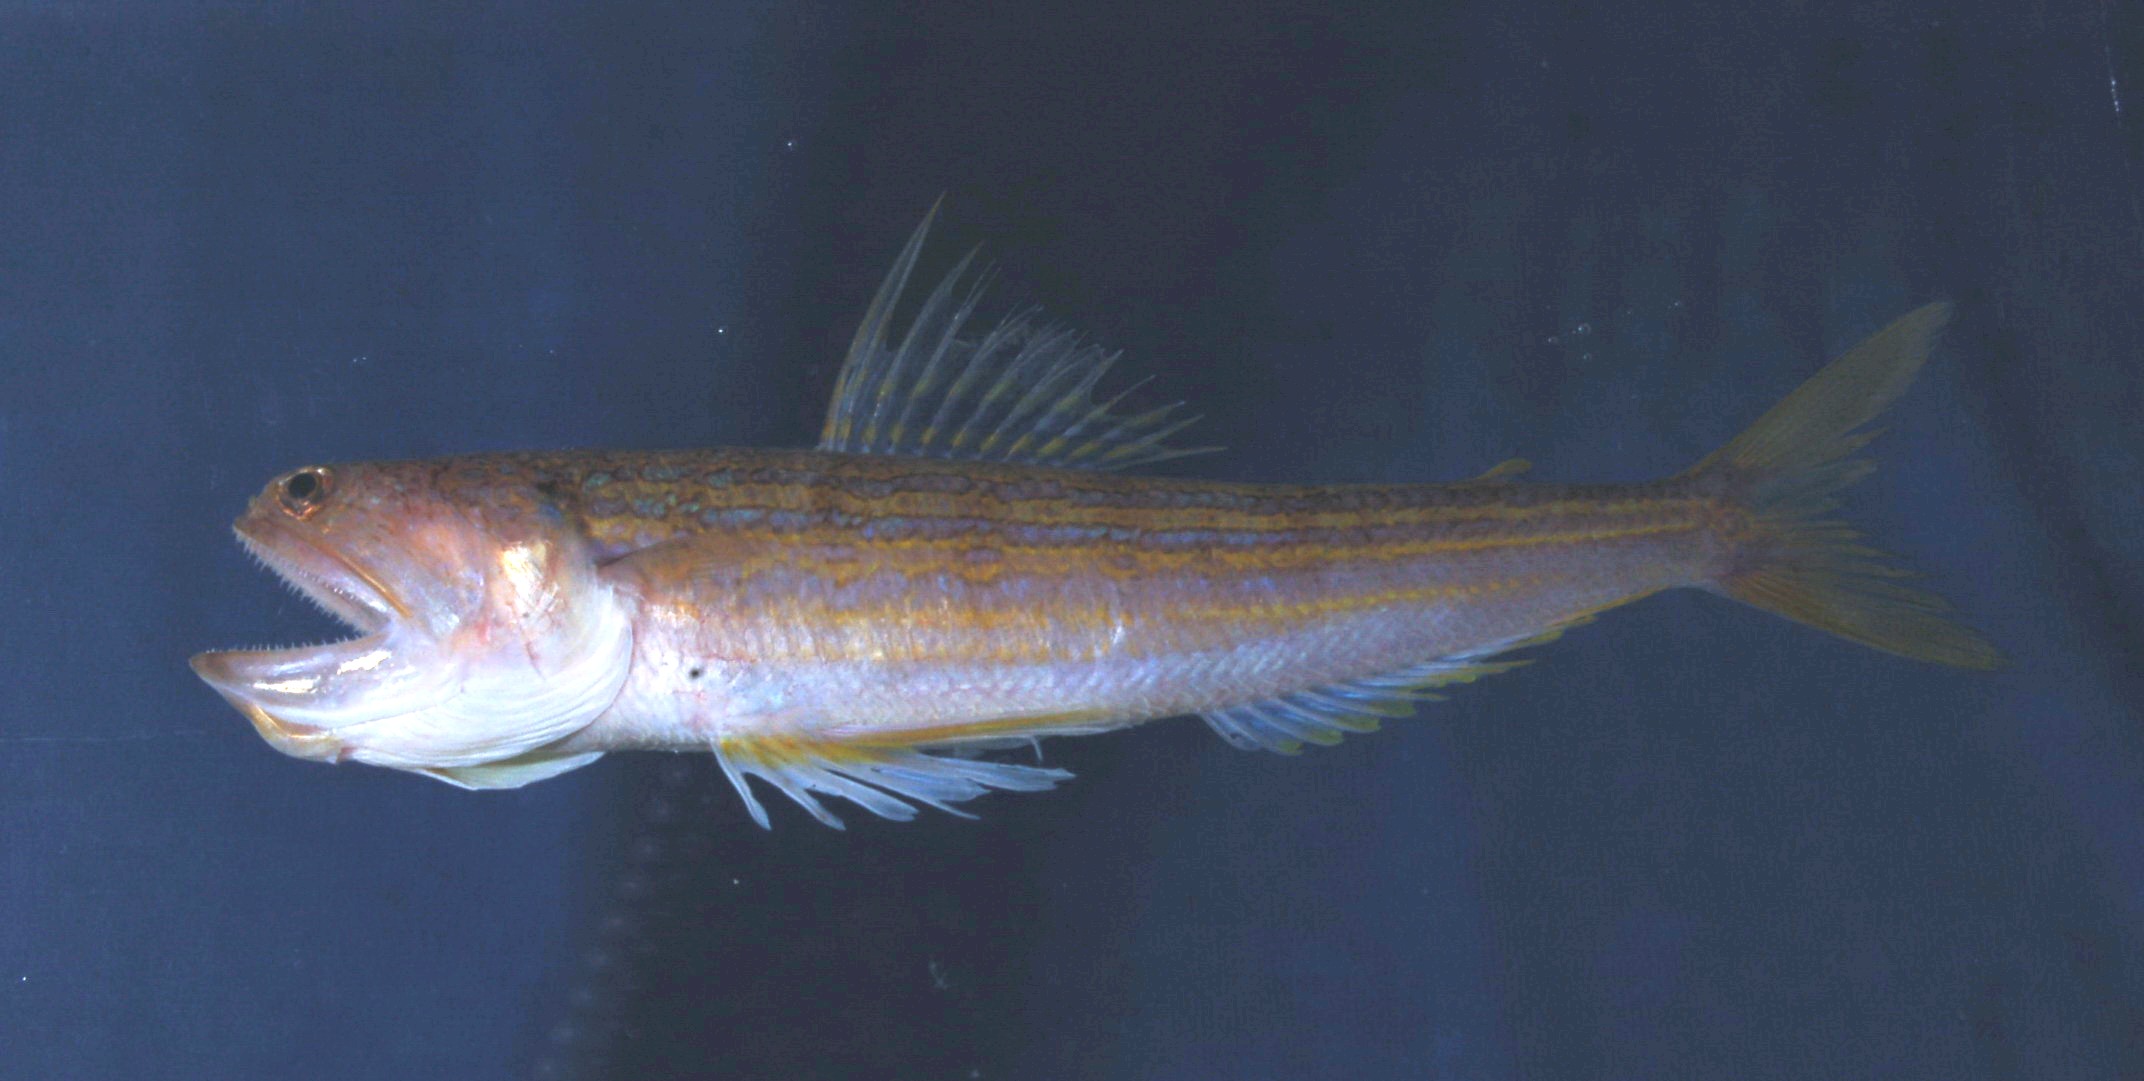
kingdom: Animalia
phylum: Chordata
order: Aulopiformes
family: Synodontidae
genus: Synodus
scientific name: Synodus myops
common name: Snakefish
